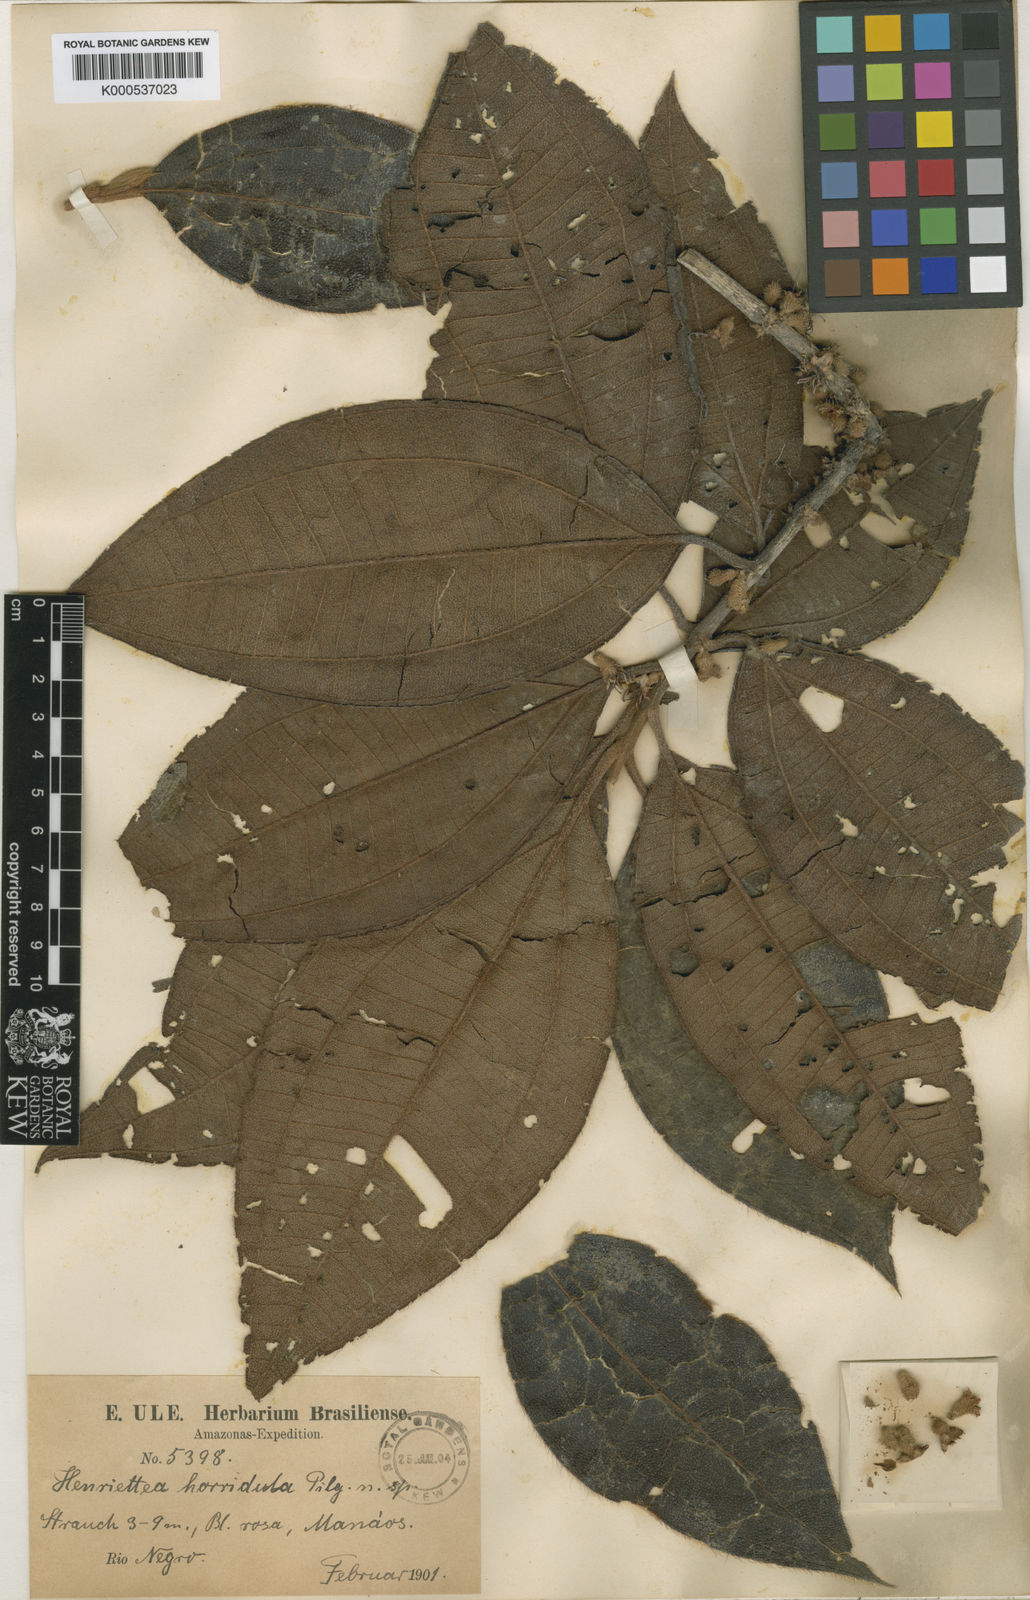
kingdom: Plantae
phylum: Tracheophyta
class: Magnoliopsida
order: Myrtales
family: Melastomataceae
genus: Henriettea
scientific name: Henriettea horridula
